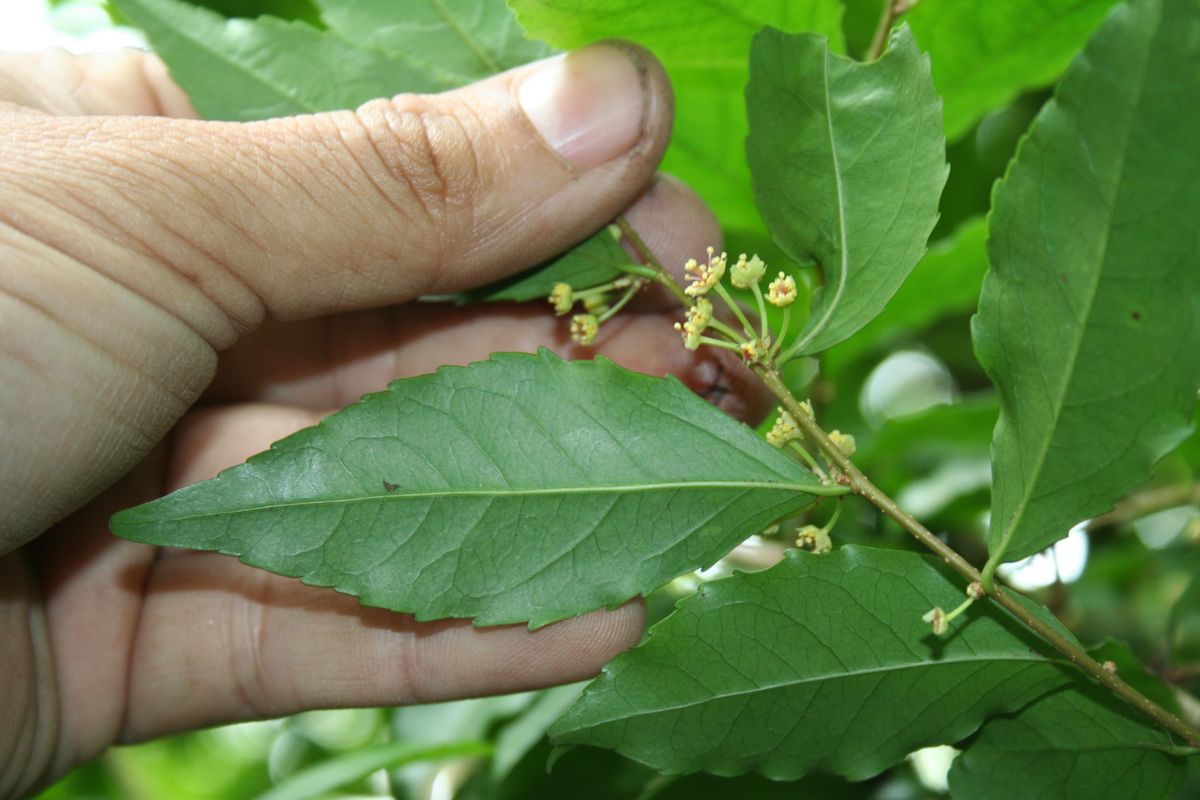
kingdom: Plantae
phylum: Tracheophyta
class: Magnoliopsida
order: Malpighiales
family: Flacourtiaceae
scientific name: Flacourtiaceae
